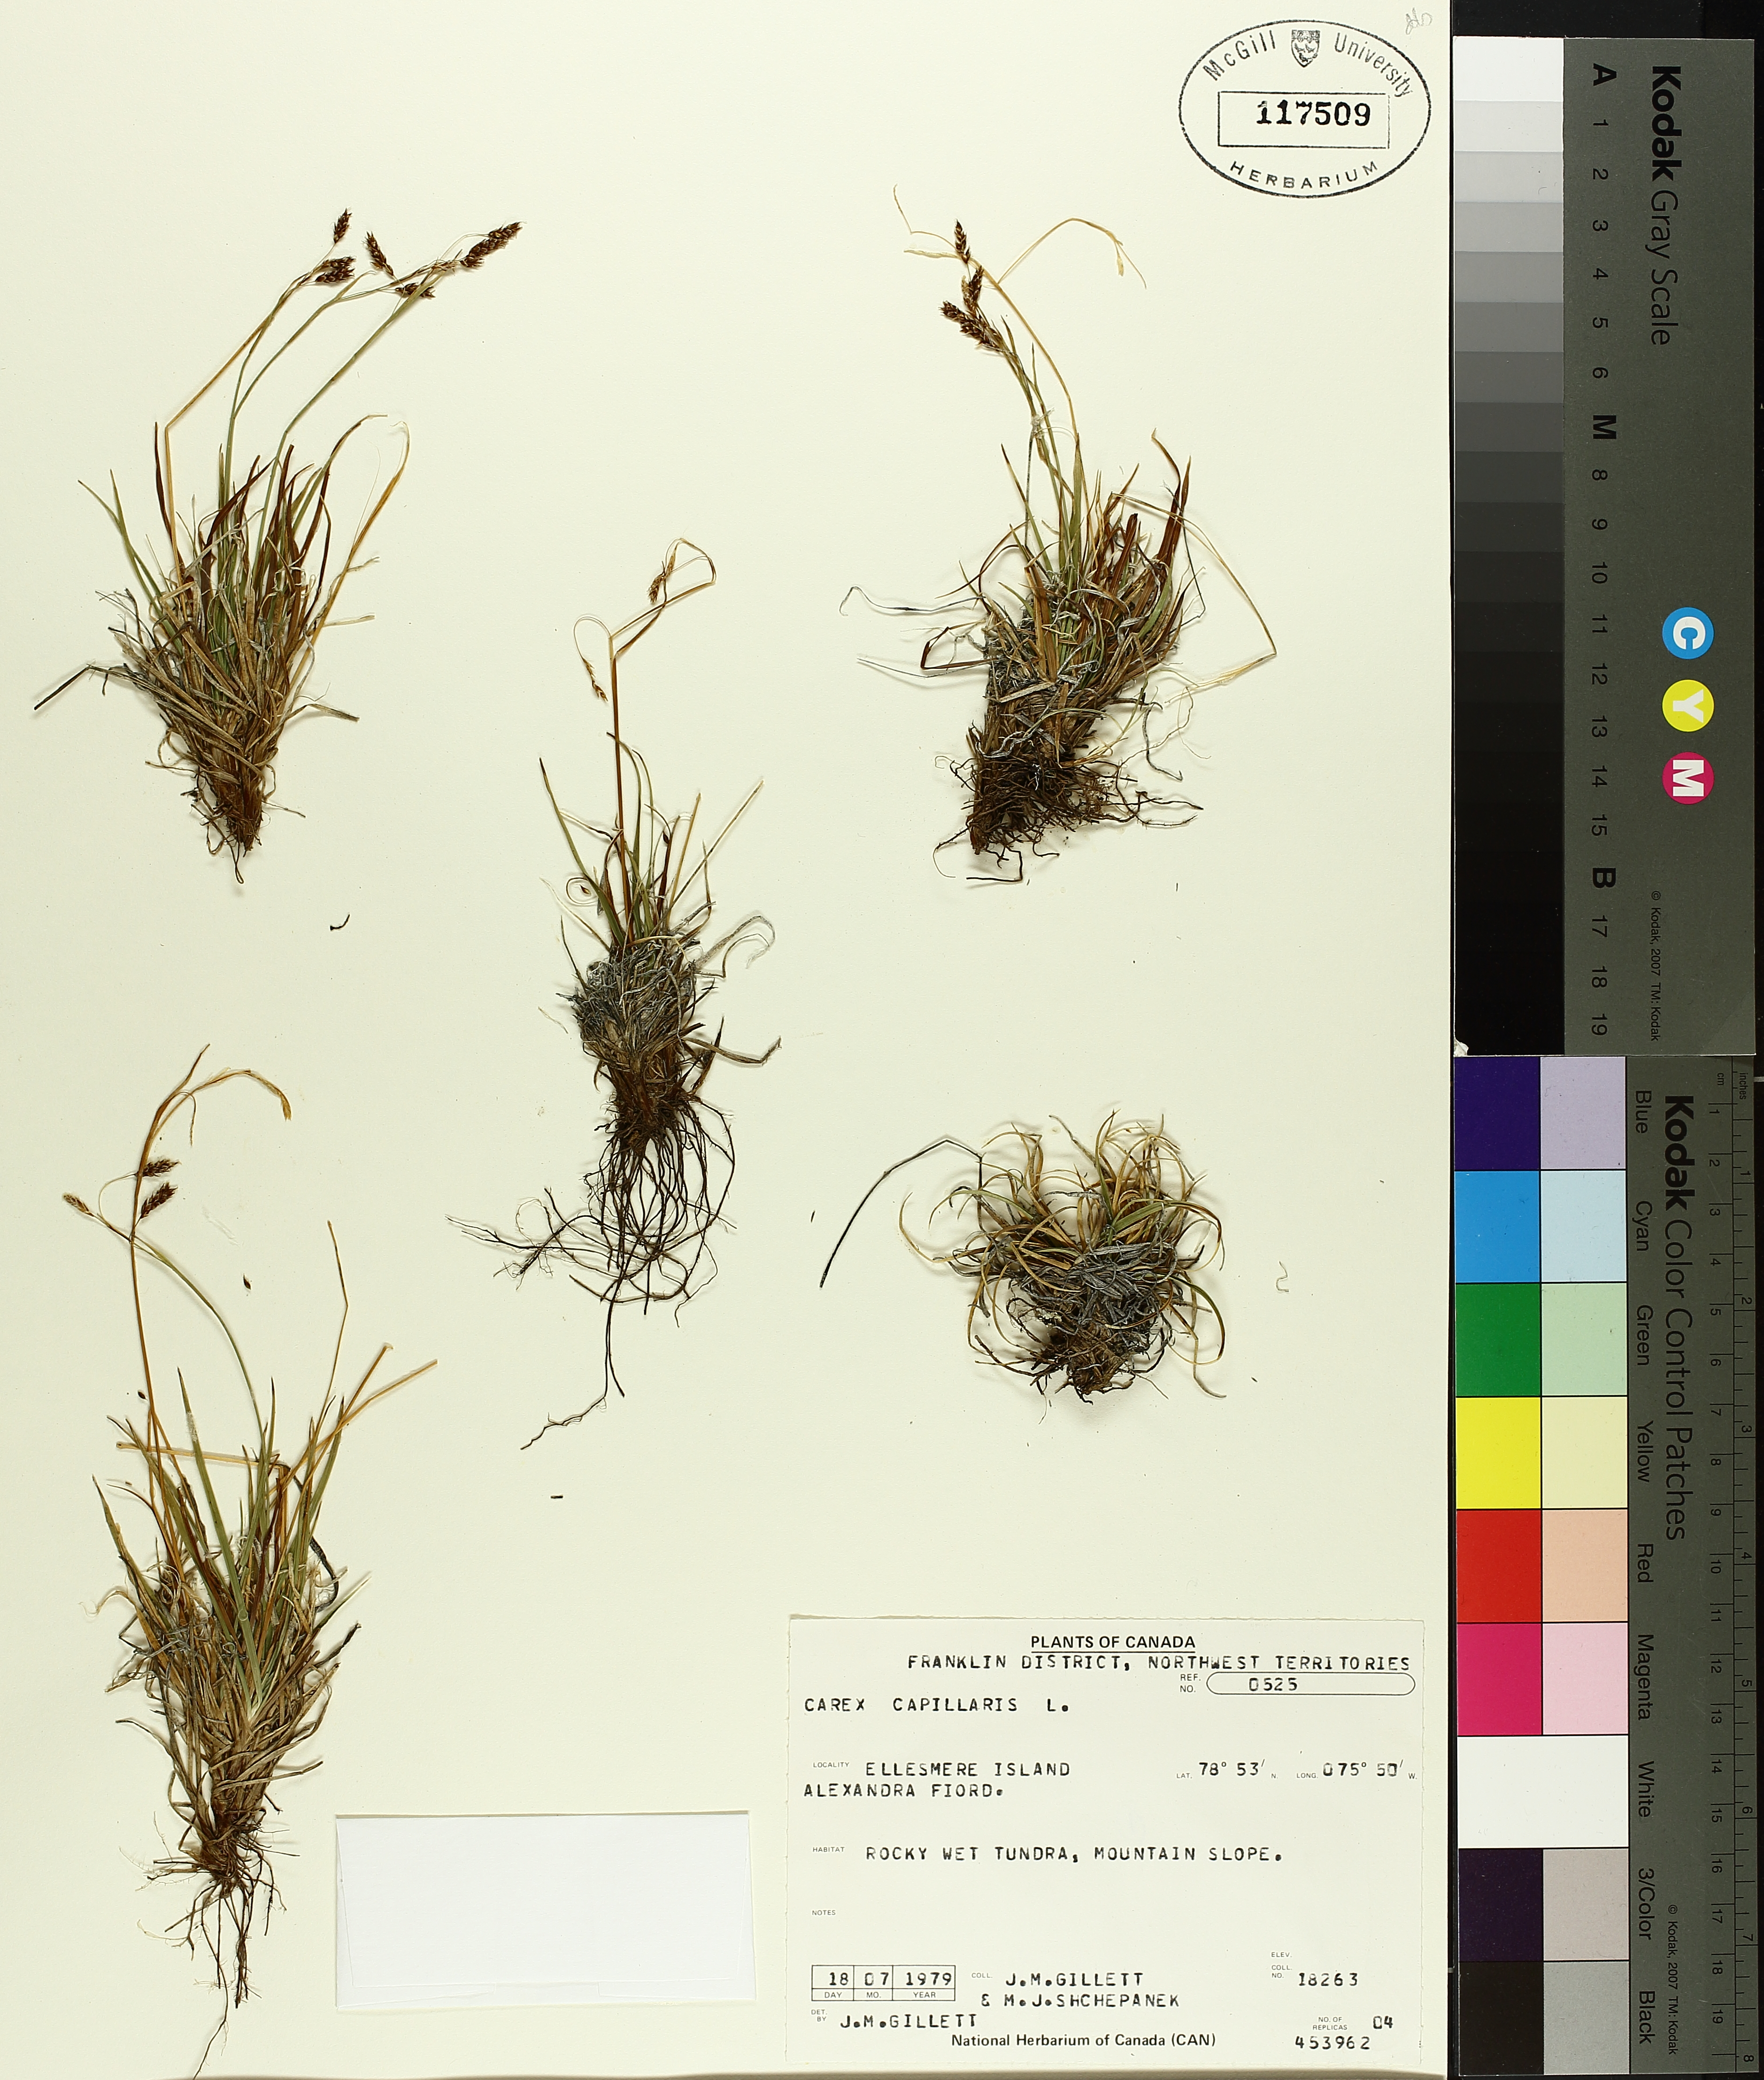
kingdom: Plantae
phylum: Tracheophyta
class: Liliopsida
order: Poales
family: Cyperaceae
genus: Carex
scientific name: Carex capillaris
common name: Hair sedge
